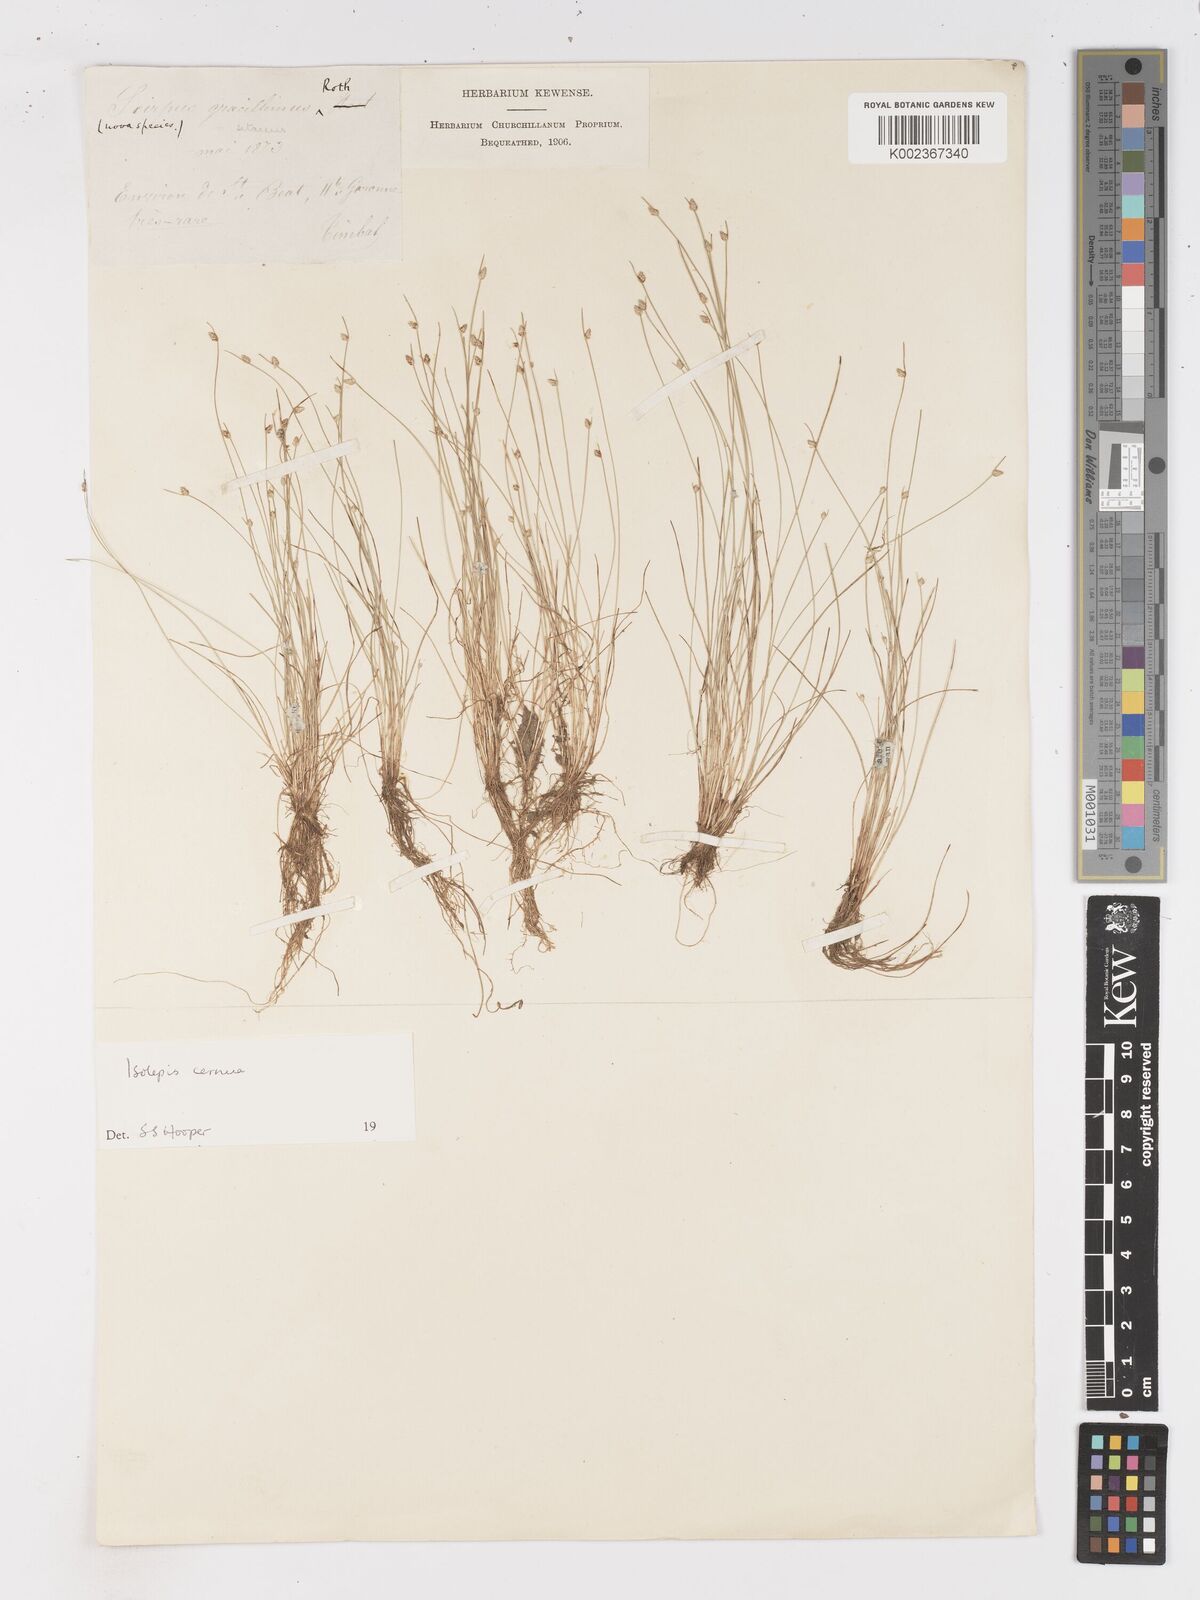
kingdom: Plantae
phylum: Tracheophyta
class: Liliopsida
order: Poales
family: Cyperaceae
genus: Isolepis
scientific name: Isolepis cernua
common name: Slender club-rush
